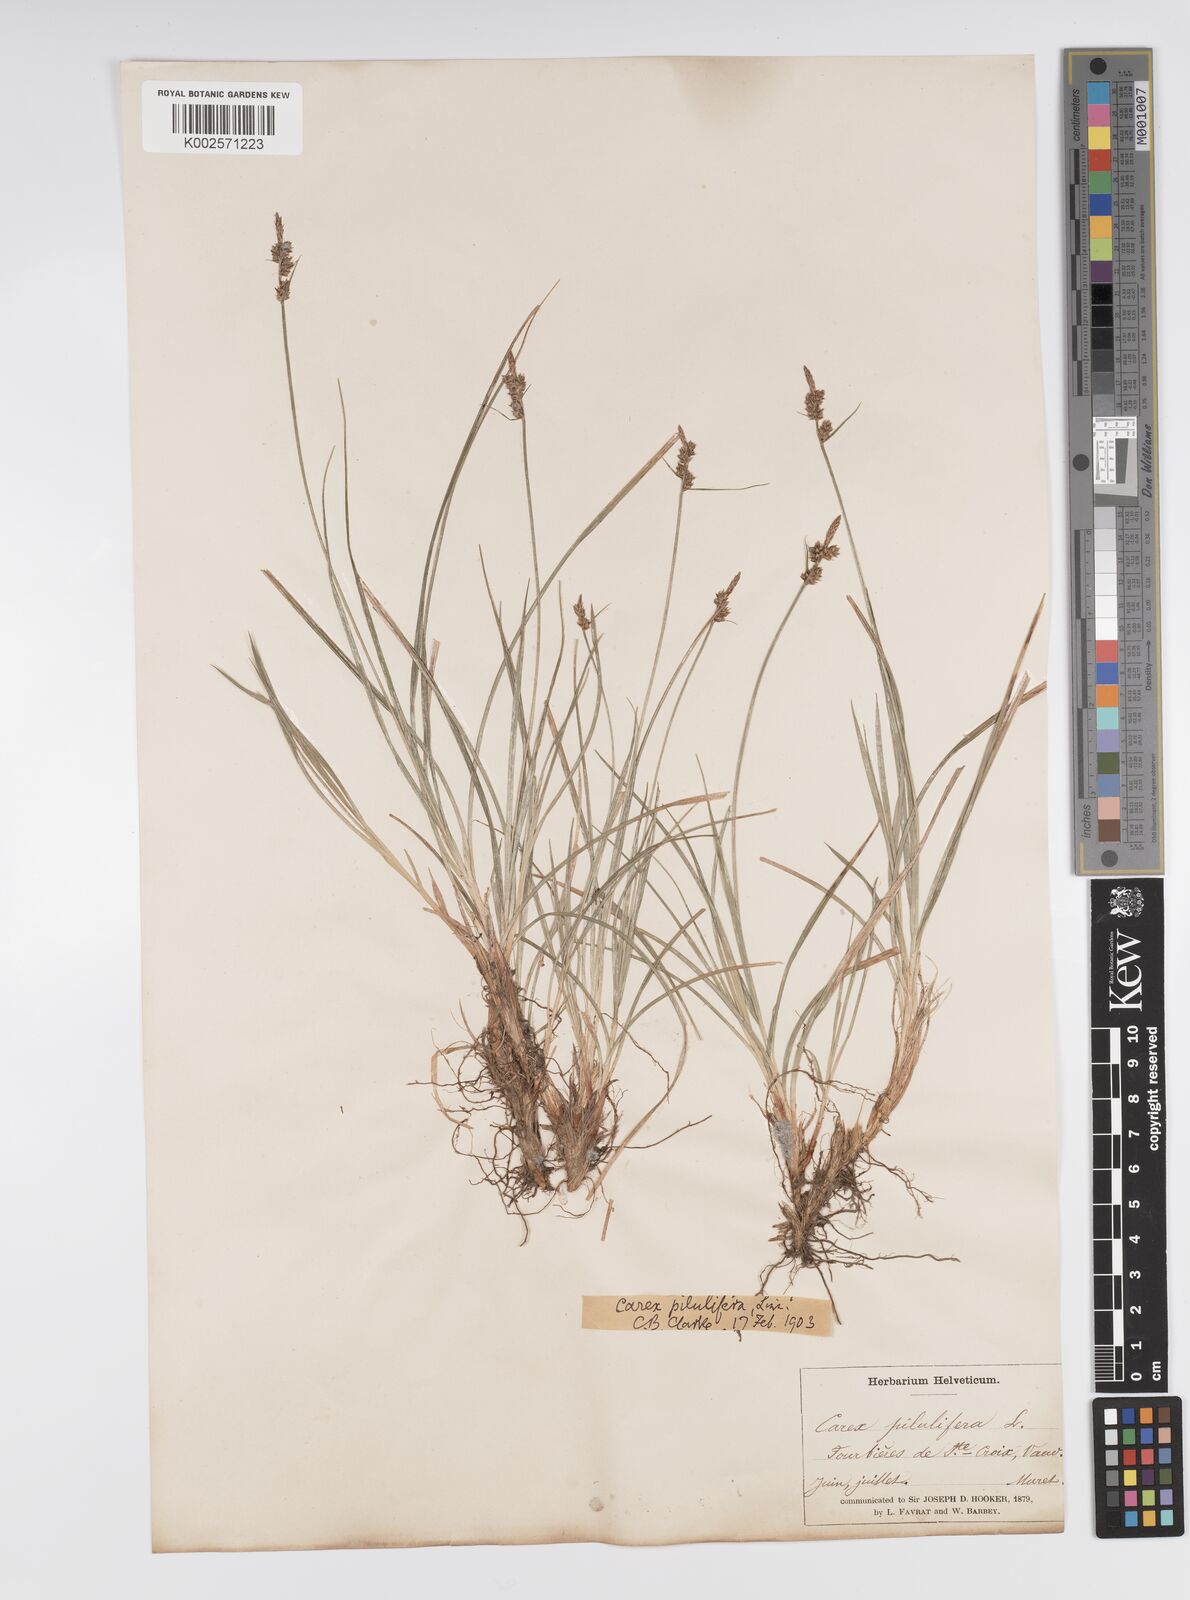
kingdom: Plantae
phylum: Tracheophyta
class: Liliopsida
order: Poales
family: Cyperaceae
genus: Carex
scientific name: Carex pilulifera
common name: Pill sedge
